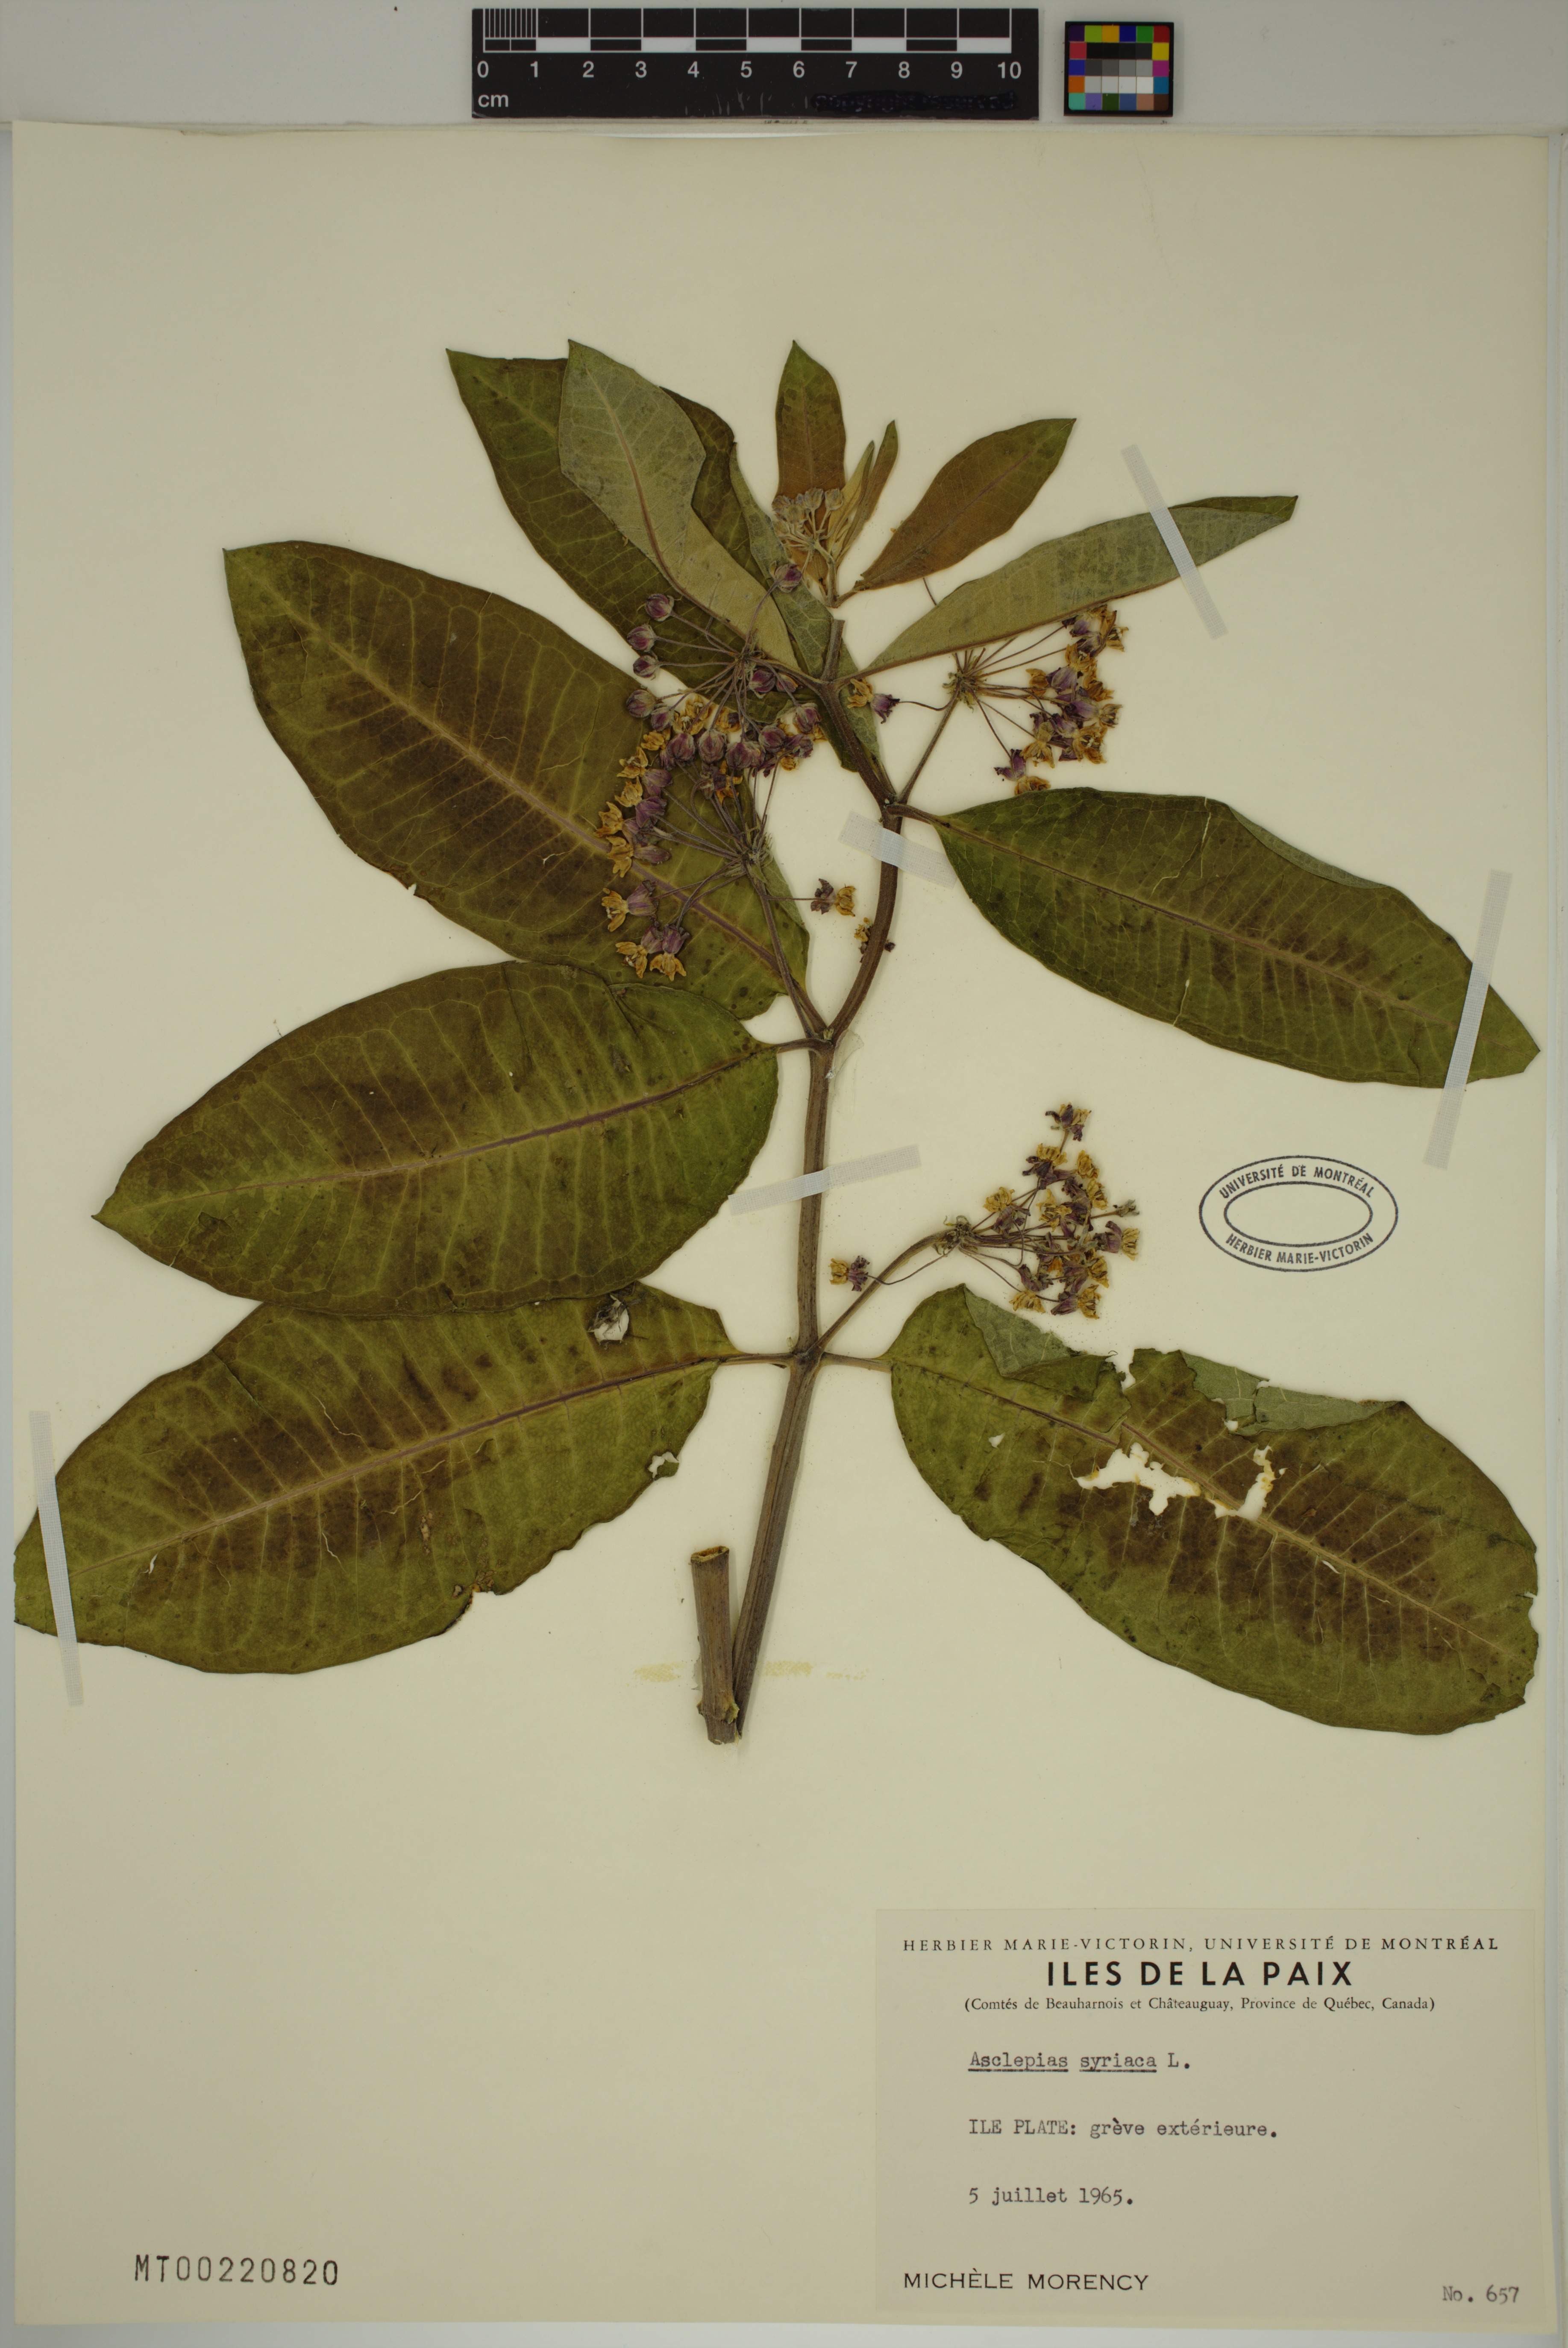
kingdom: Plantae
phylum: Tracheophyta
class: Magnoliopsida
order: Gentianales
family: Apocynaceae
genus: Asclepias
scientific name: Asclepias syriaca
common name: Common milkweed
